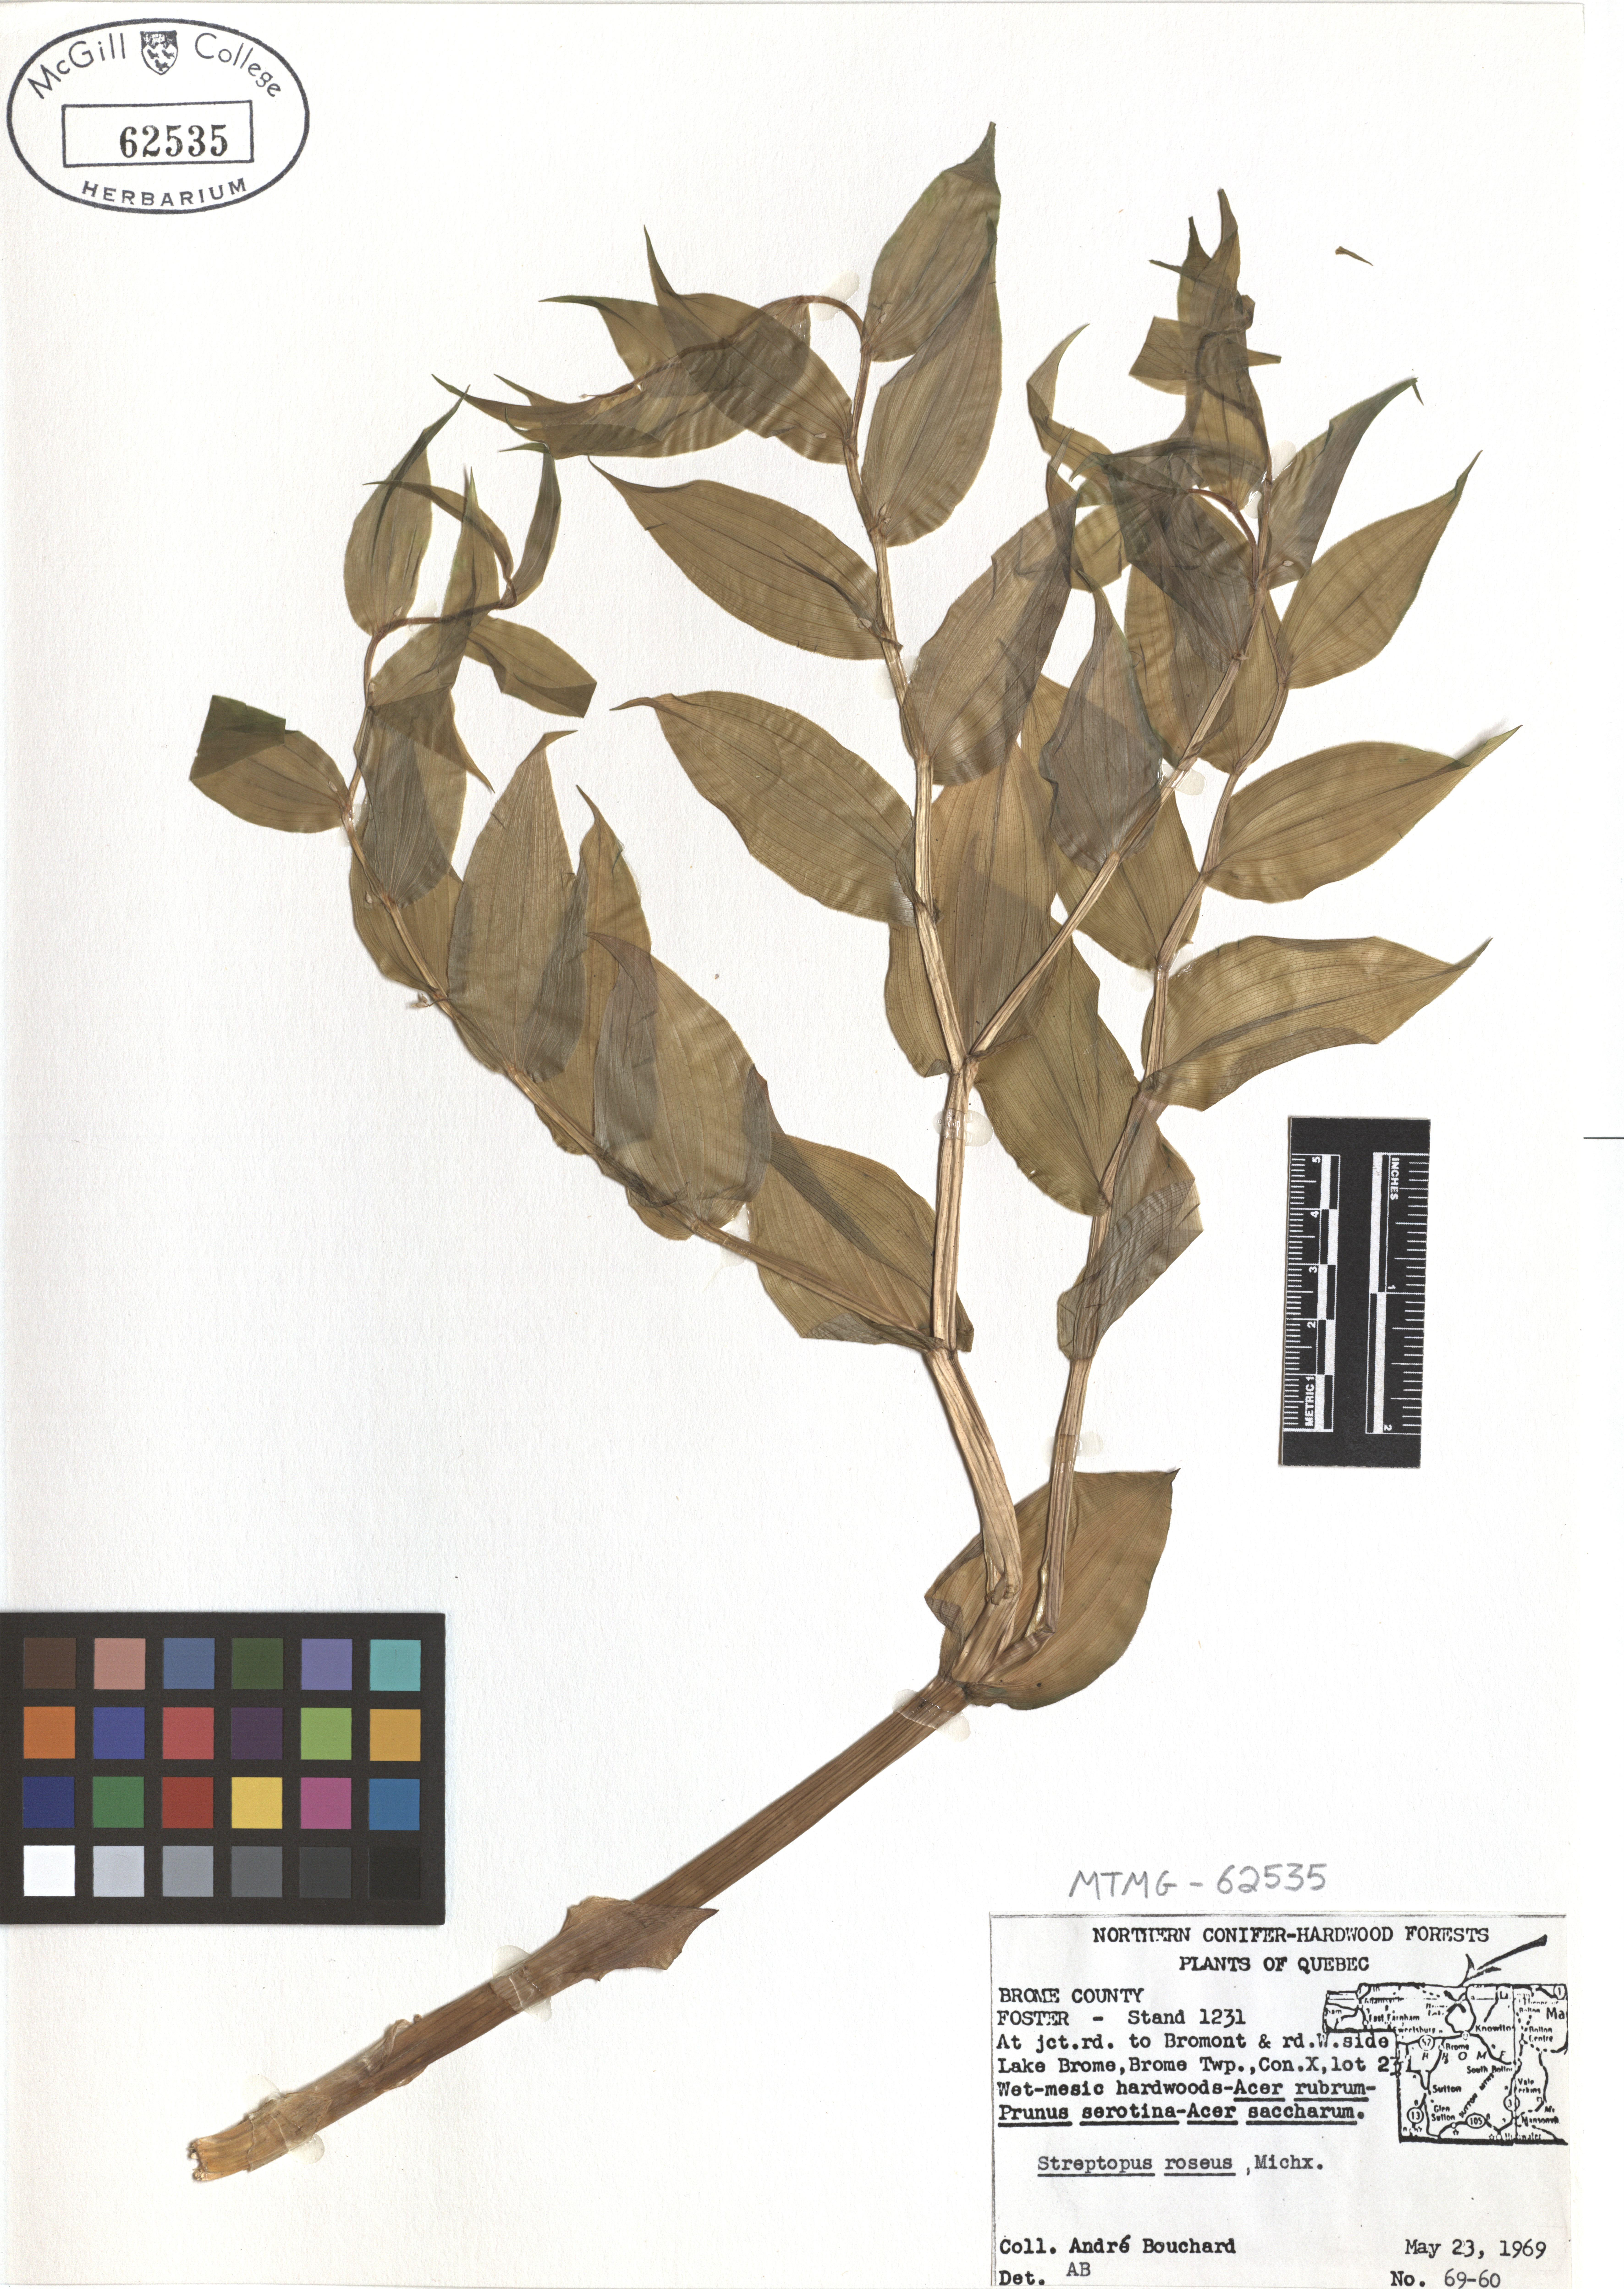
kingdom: Plantae
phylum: Tracheophyta
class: Liliopsida
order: Liliales
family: Liliaceae
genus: Streptopus
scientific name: Streptopus lanceolatus
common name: Rose mandarin
